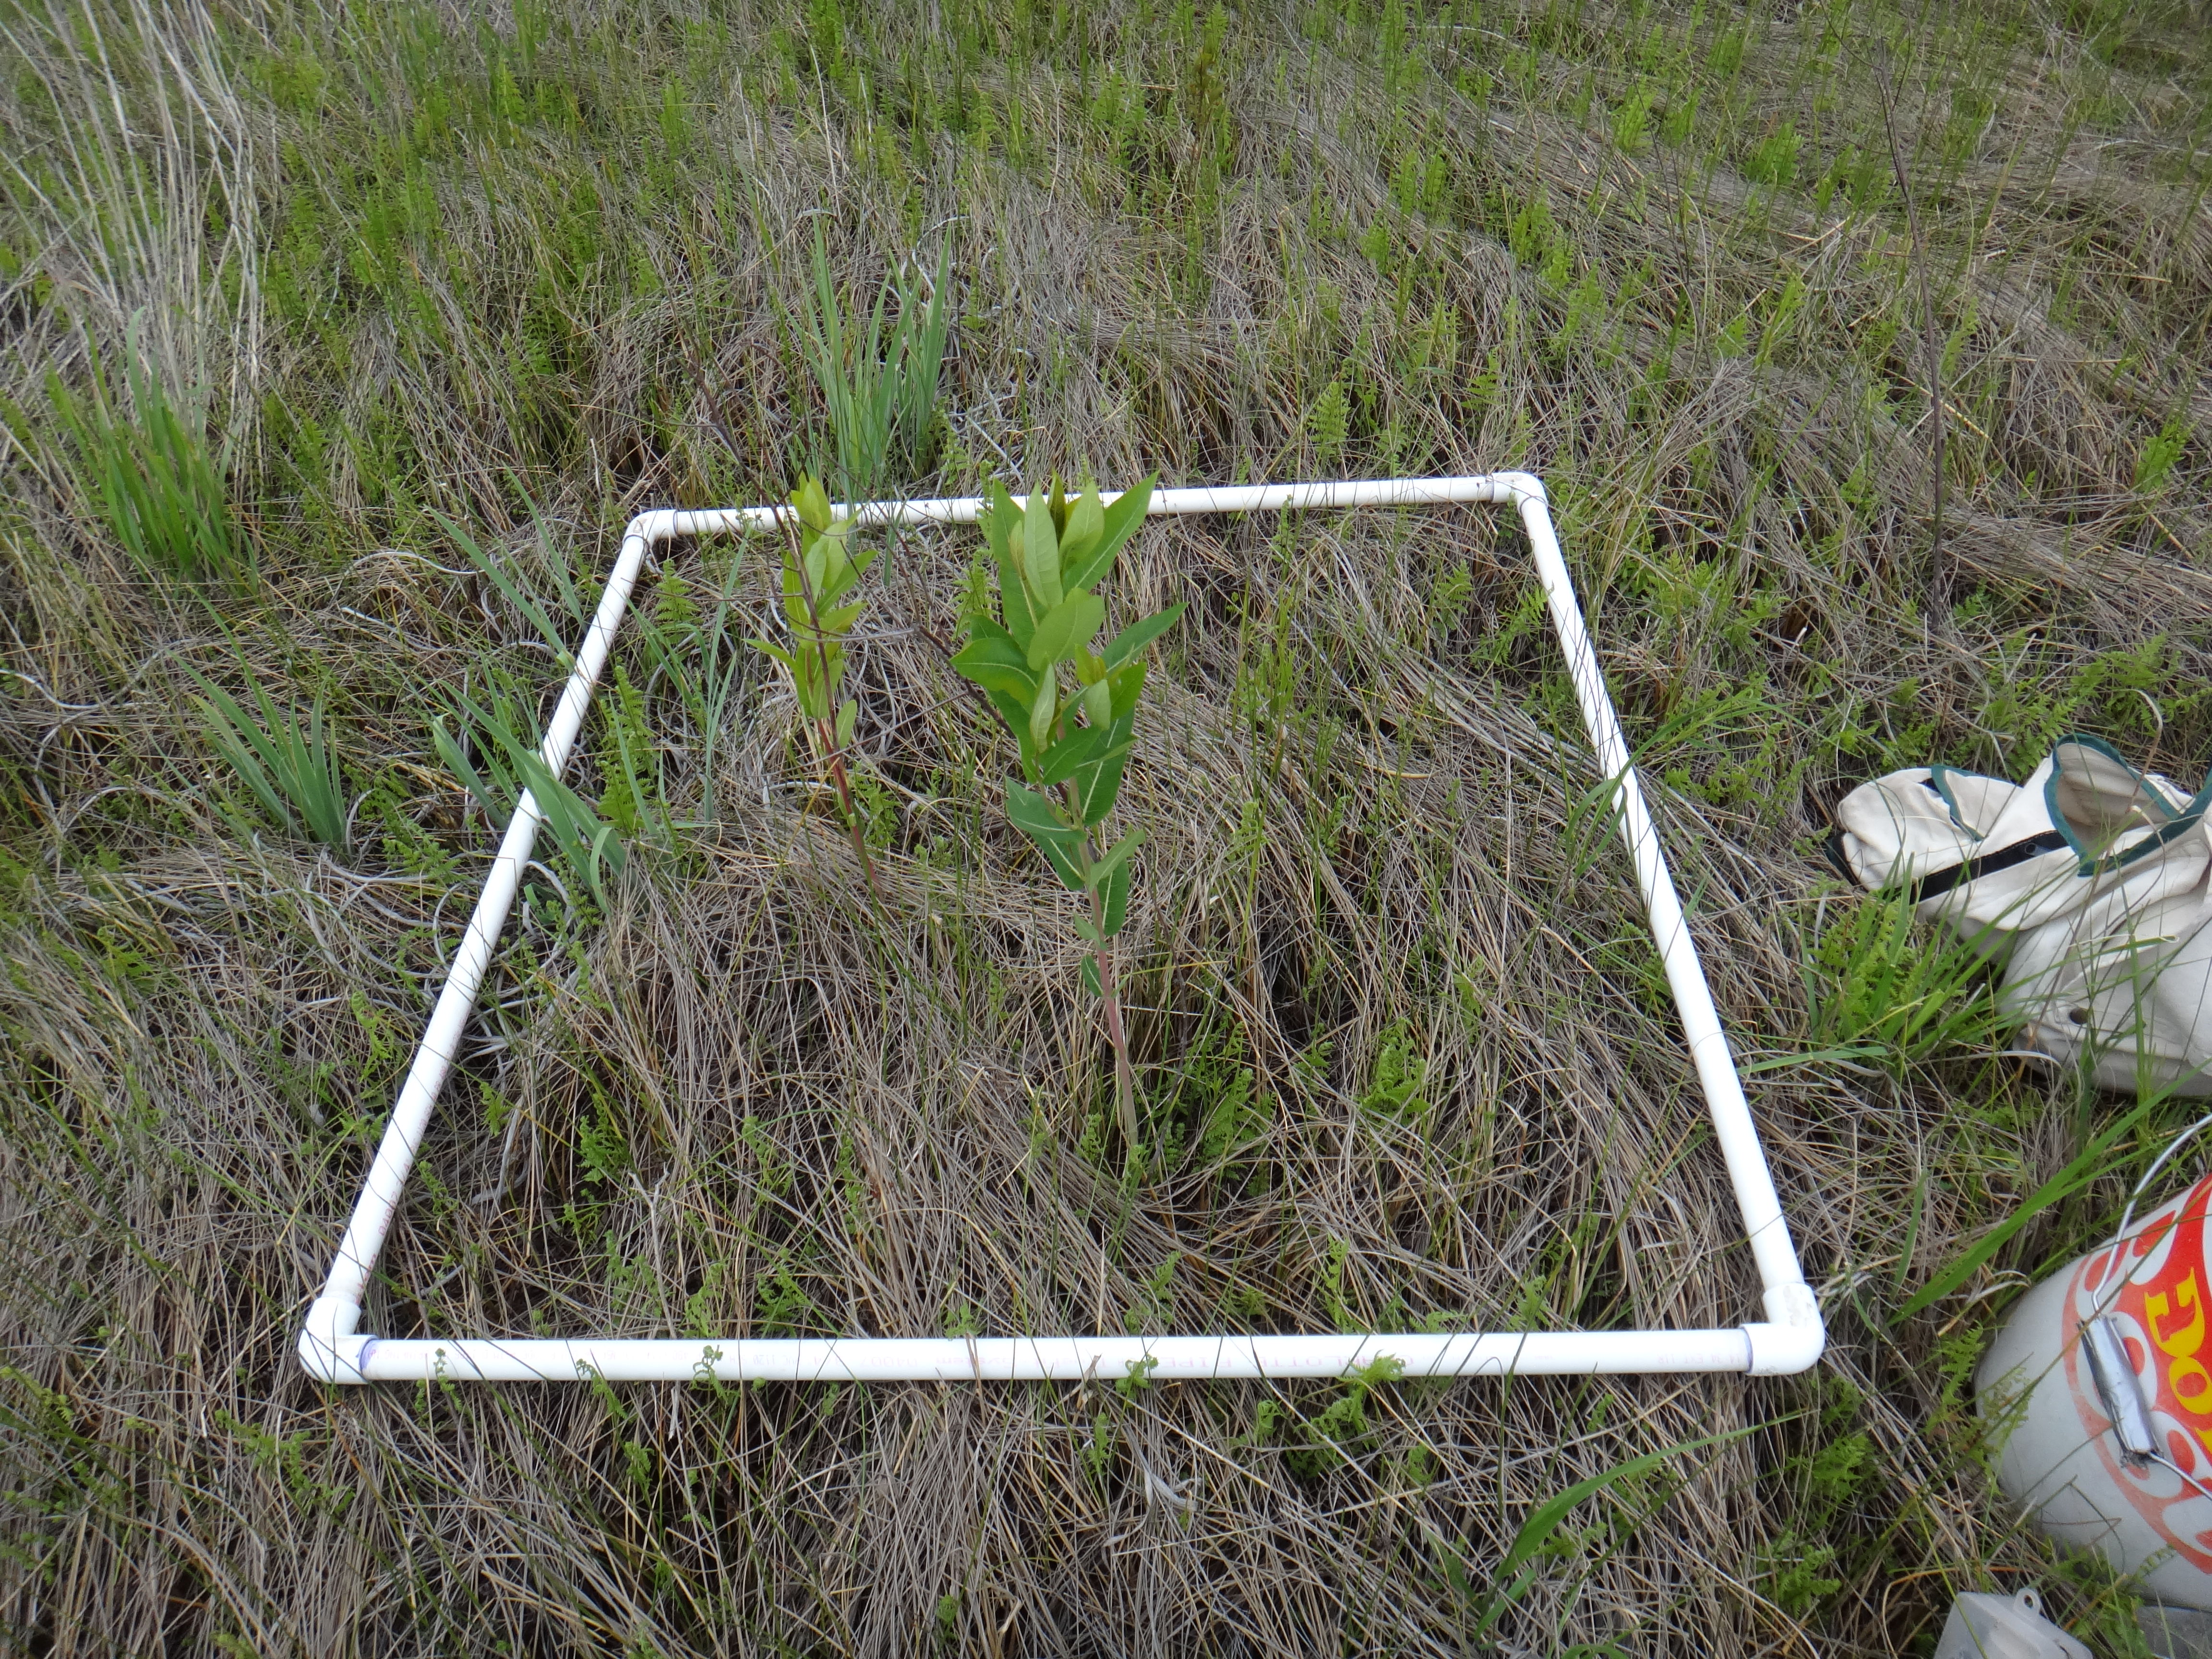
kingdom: Plantae
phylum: Tracheophyta
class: Magnoliopsida
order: Ericales
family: Primulaceae
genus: Lysimachia
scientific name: Lysimachia quadriflora
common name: Four-flowered loosestrife
